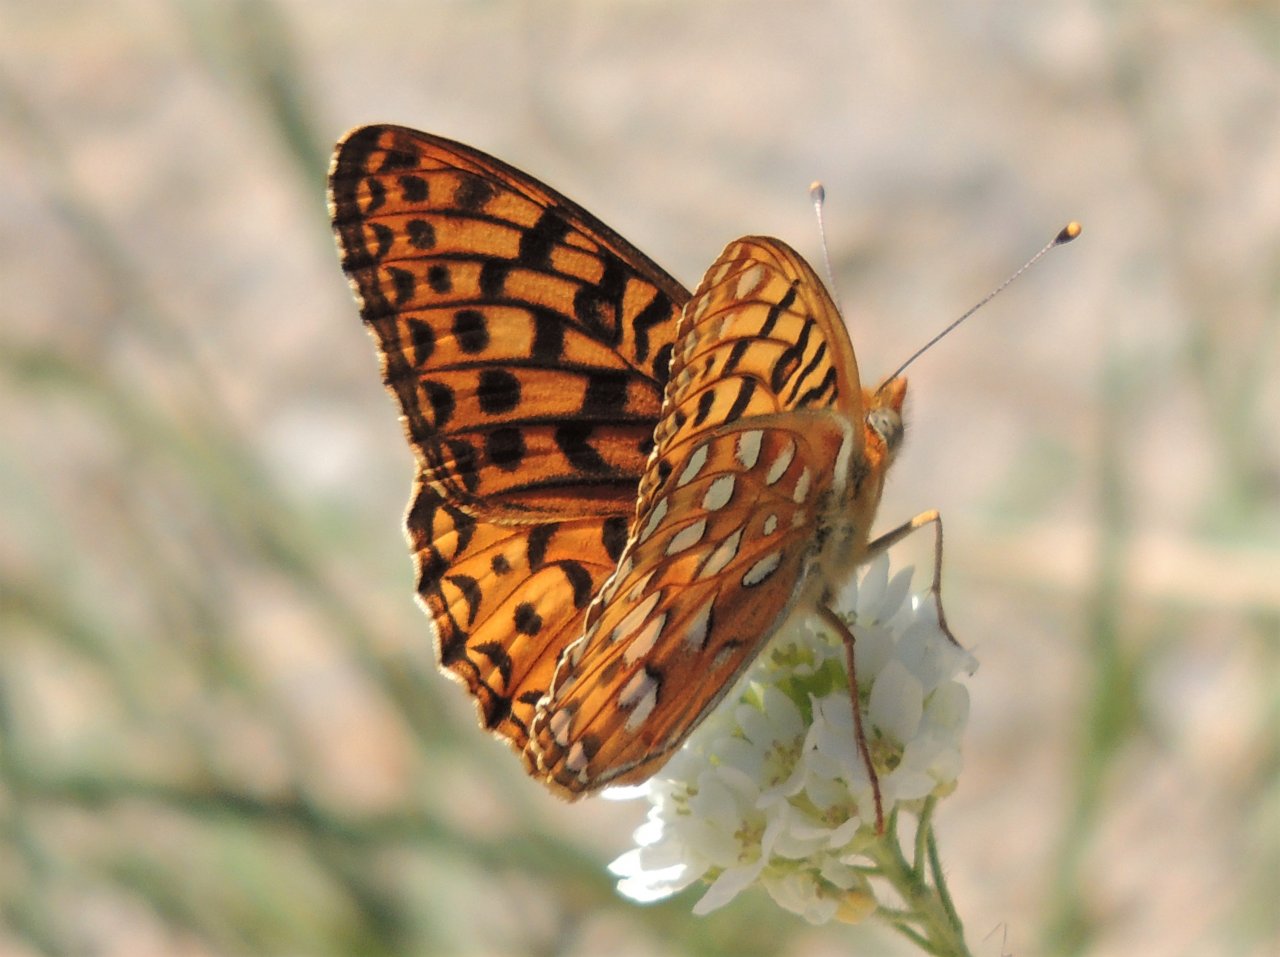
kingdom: Animalia
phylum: Arthropoda
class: Insecta
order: Lepidoptera
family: Nymphalidae
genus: Speyeria
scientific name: Speyeria zerene
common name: Zerene Fritillary
